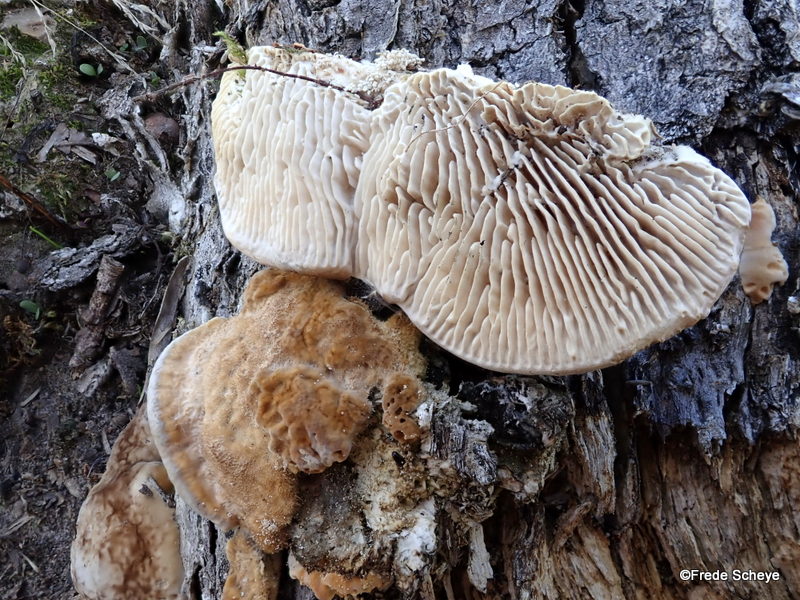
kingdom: Fungi
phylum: Basidiomycota
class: Agaricomycetes
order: Gloeophyllales
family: Gloeophyllaceae
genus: Gloeophyllum
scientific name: Gloeophyllum sepiarium
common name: fyrre-korkhat
